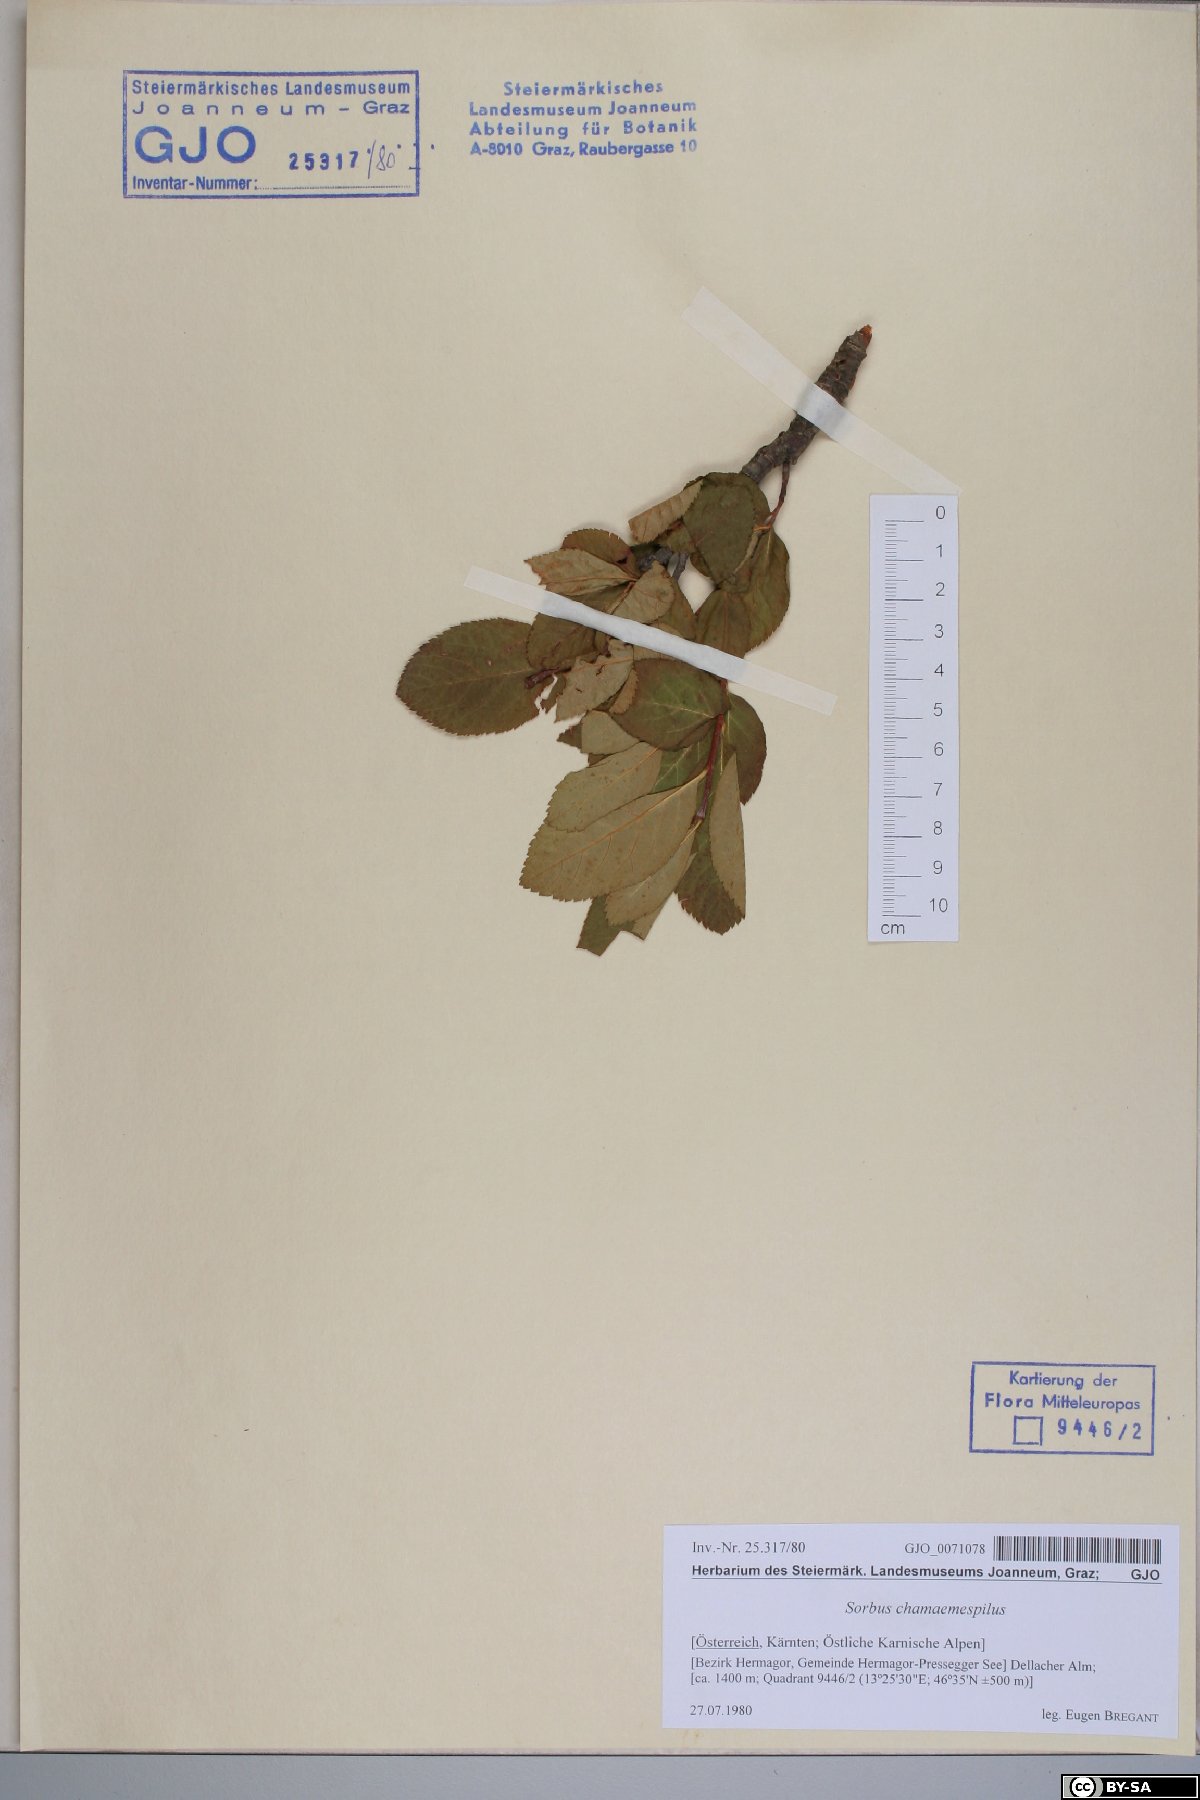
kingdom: Plantae
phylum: Tracheophyta
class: Magnoliopsida
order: Rosales
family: Rosaceae
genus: Chamaemespilus
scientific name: Chamaemespilus alpina
